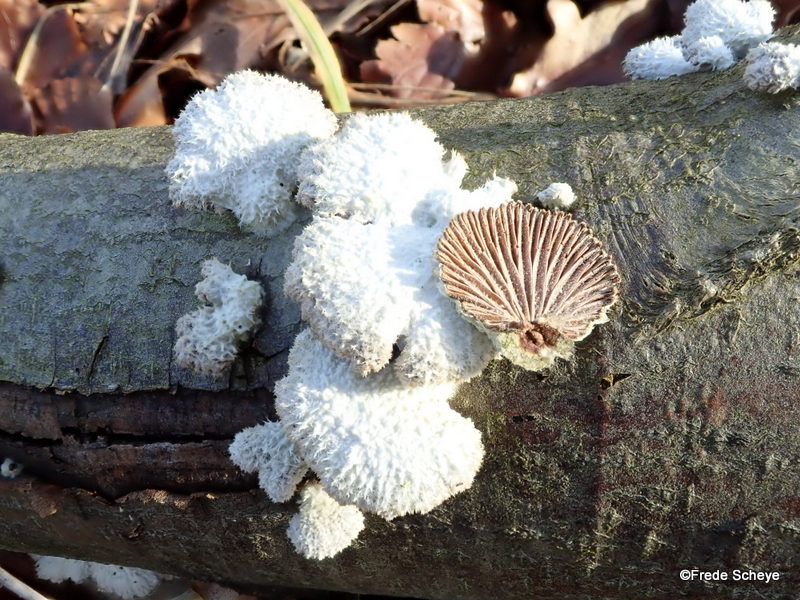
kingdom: Fungi
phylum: Basidiomycota
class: Agaricomycetes
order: Agaricales
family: Schizophyllaceae
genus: Schizophyllum
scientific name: Schizophyllum commune
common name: kløvblad
